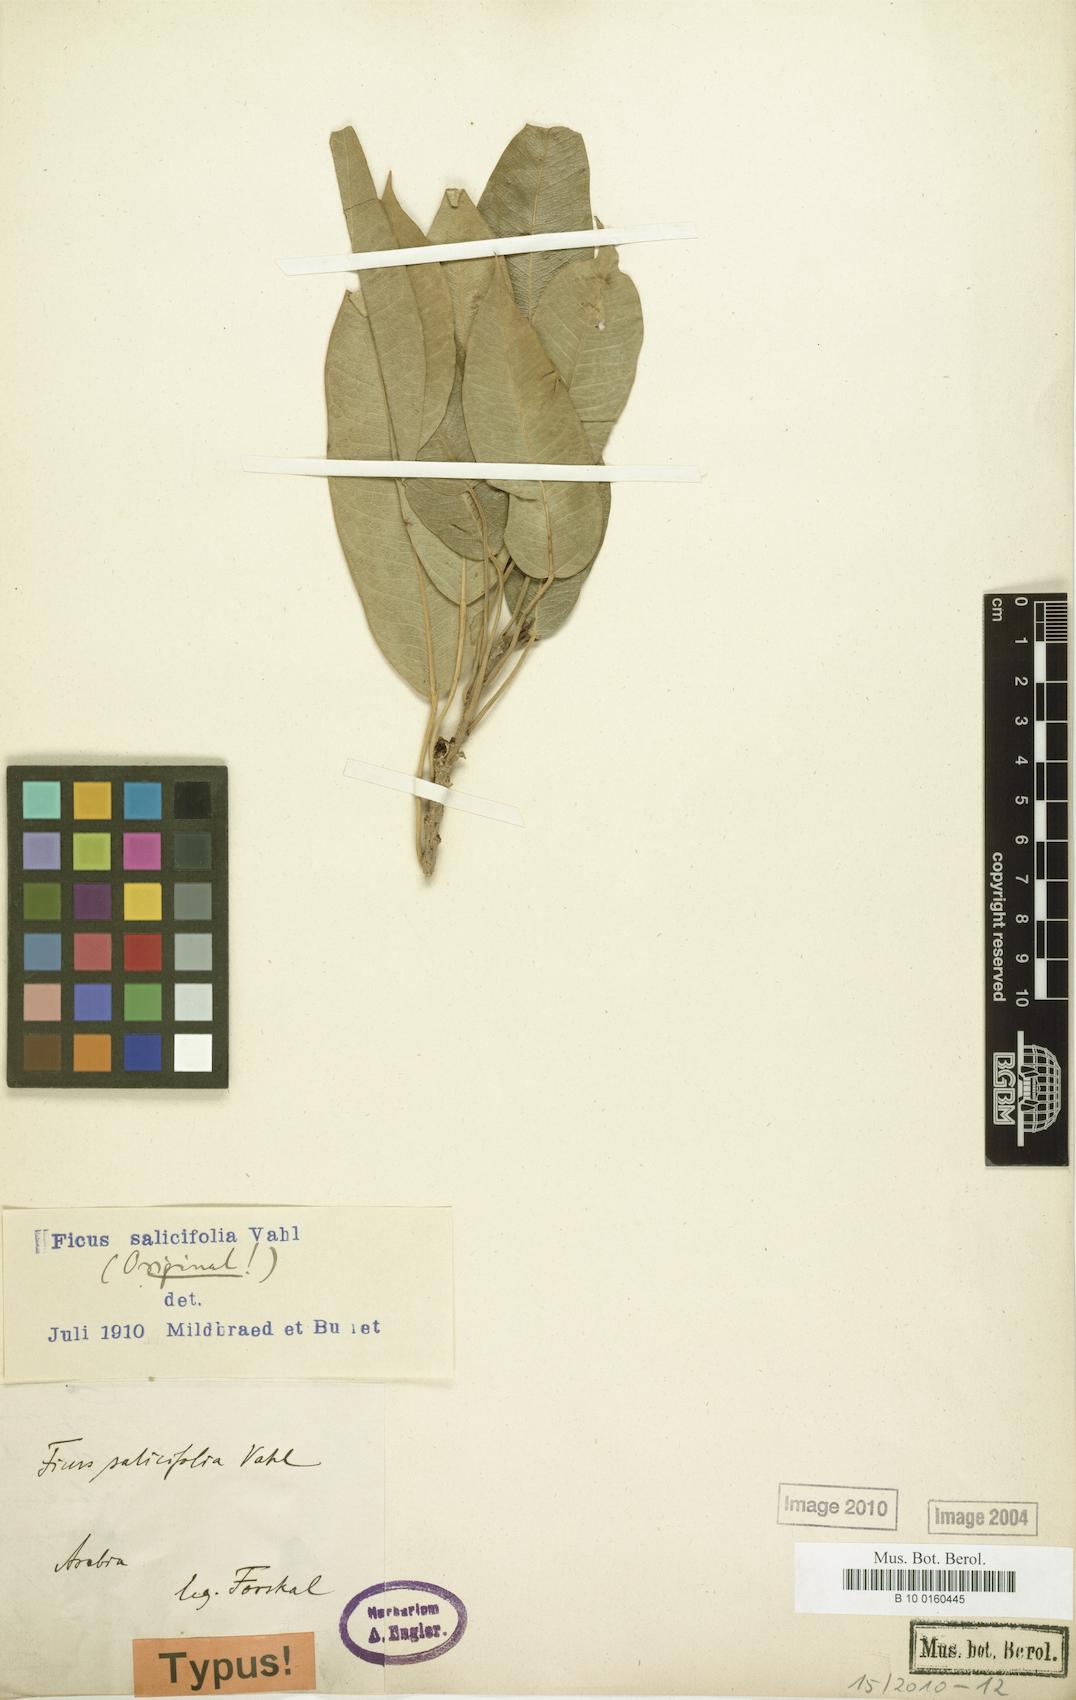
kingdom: Plantae
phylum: Tracheophyta
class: Magnoliopsida
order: Rosales
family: Moraceae
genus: Ficus
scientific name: Ficus salicifolia
